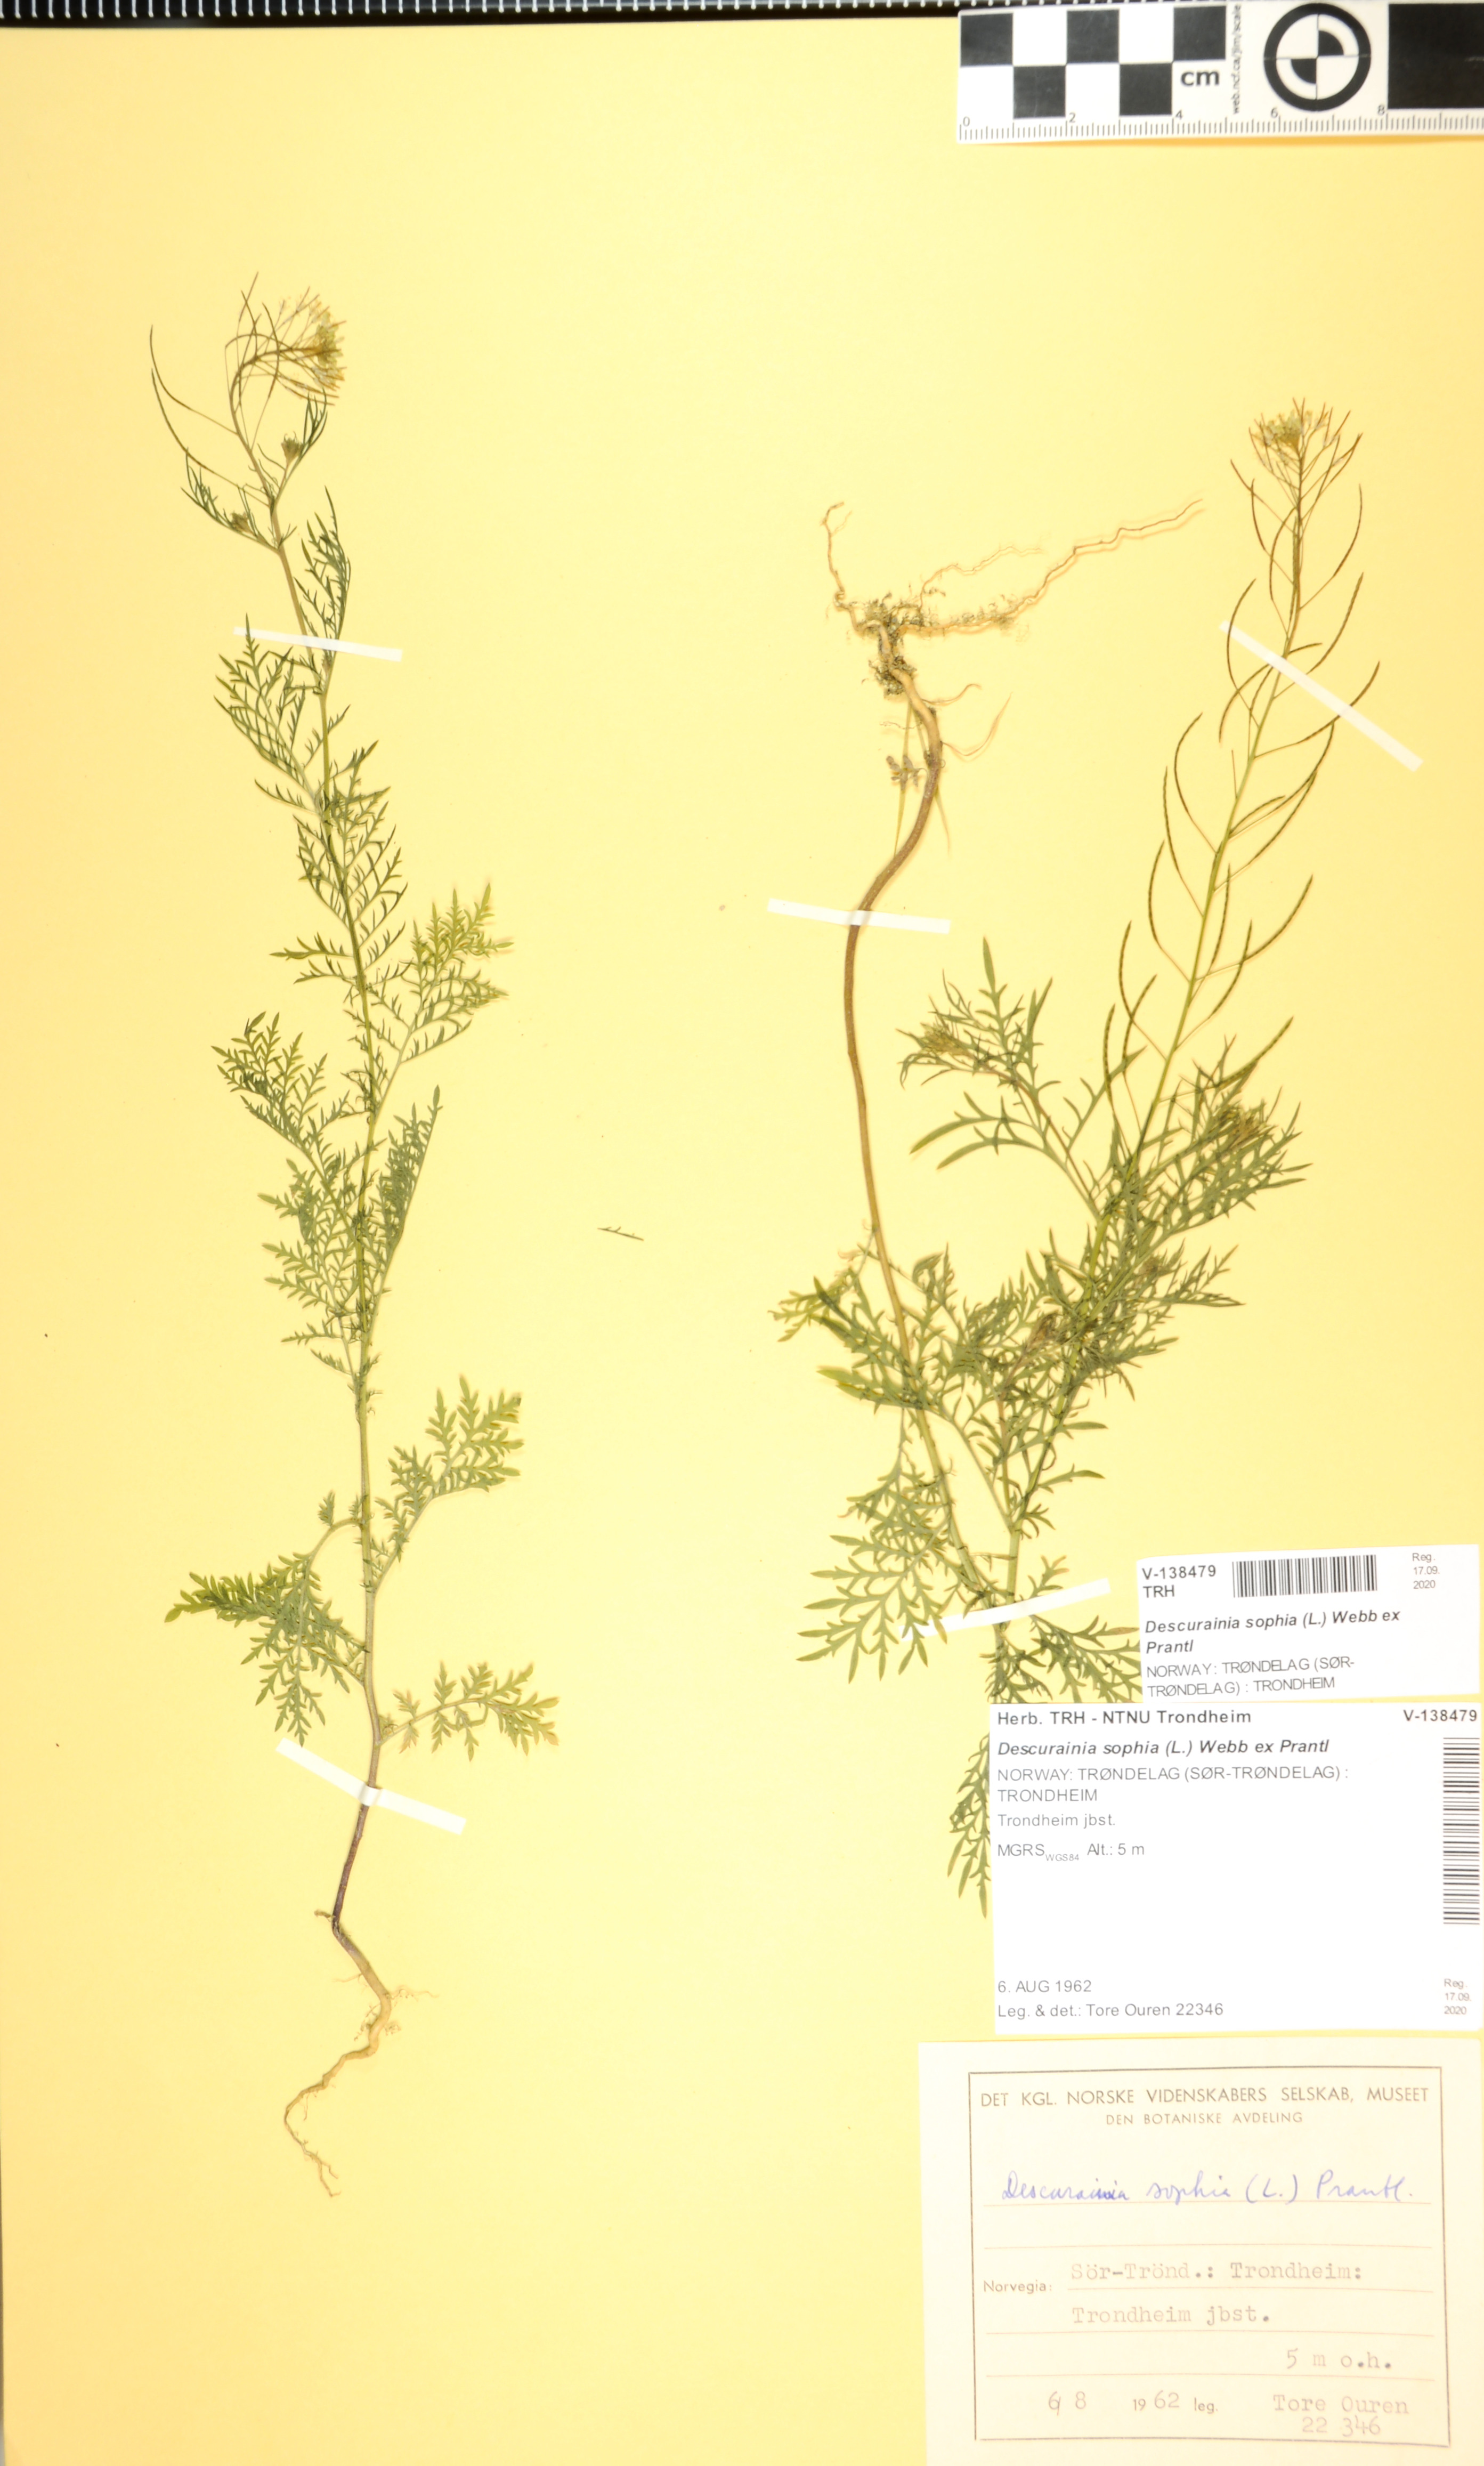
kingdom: Plantae
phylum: Tracheophyta
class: Magnoliopsida
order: Brassicales
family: Brassicaceae
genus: Descurainia
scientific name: Descurainia sophia
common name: Flixweed
